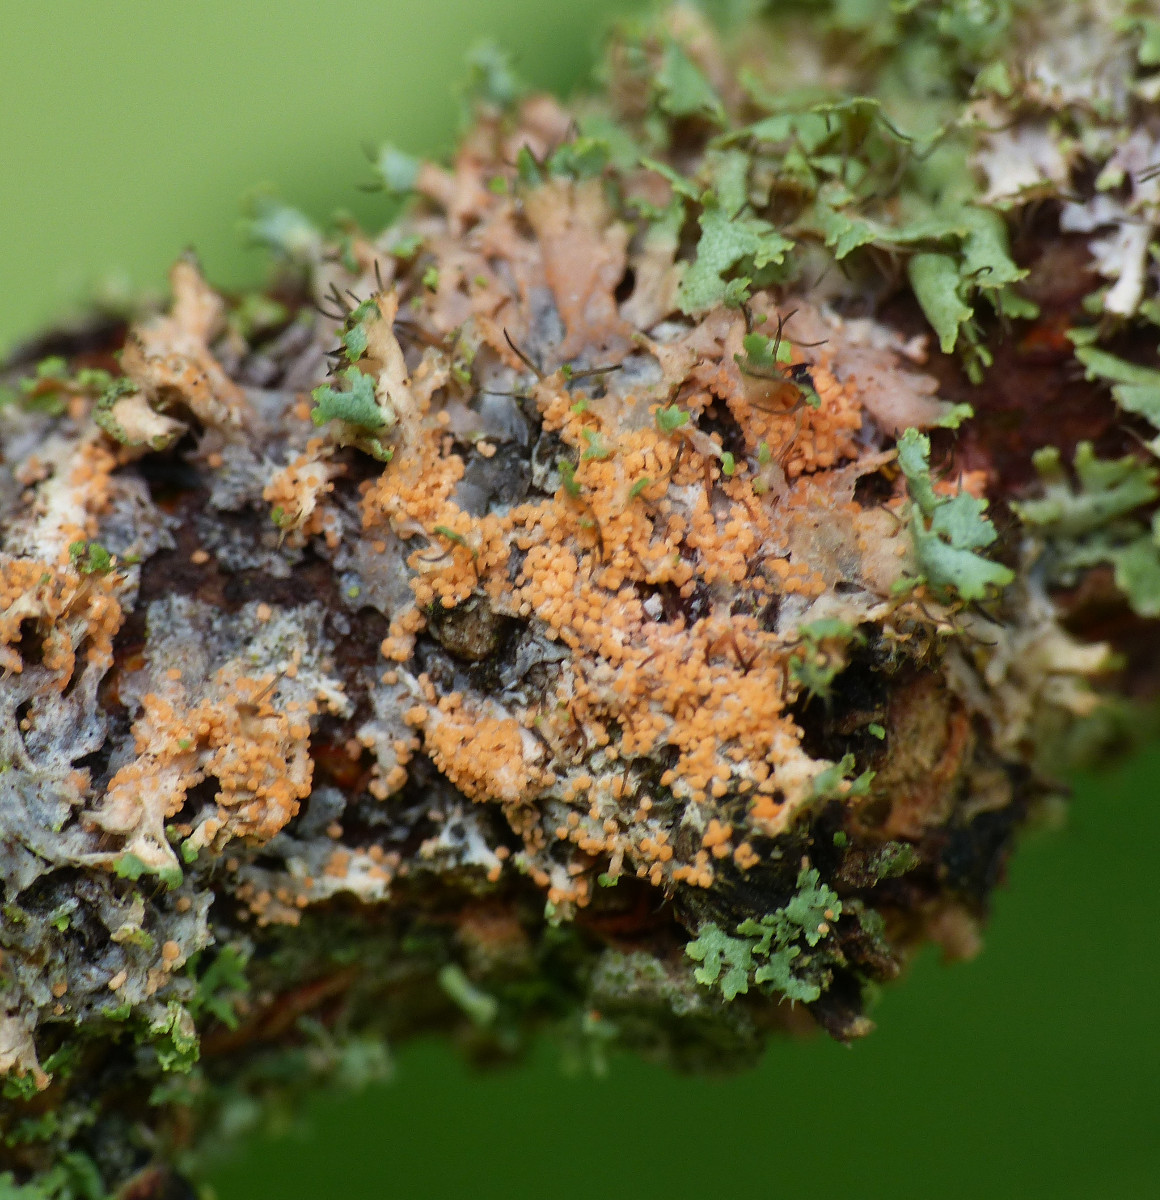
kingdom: Fungi
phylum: Basidiomycota
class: Agaricomycetes
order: Corticiales
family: Corticiaceae
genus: Erythricium
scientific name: Erythricium aurantiacum
